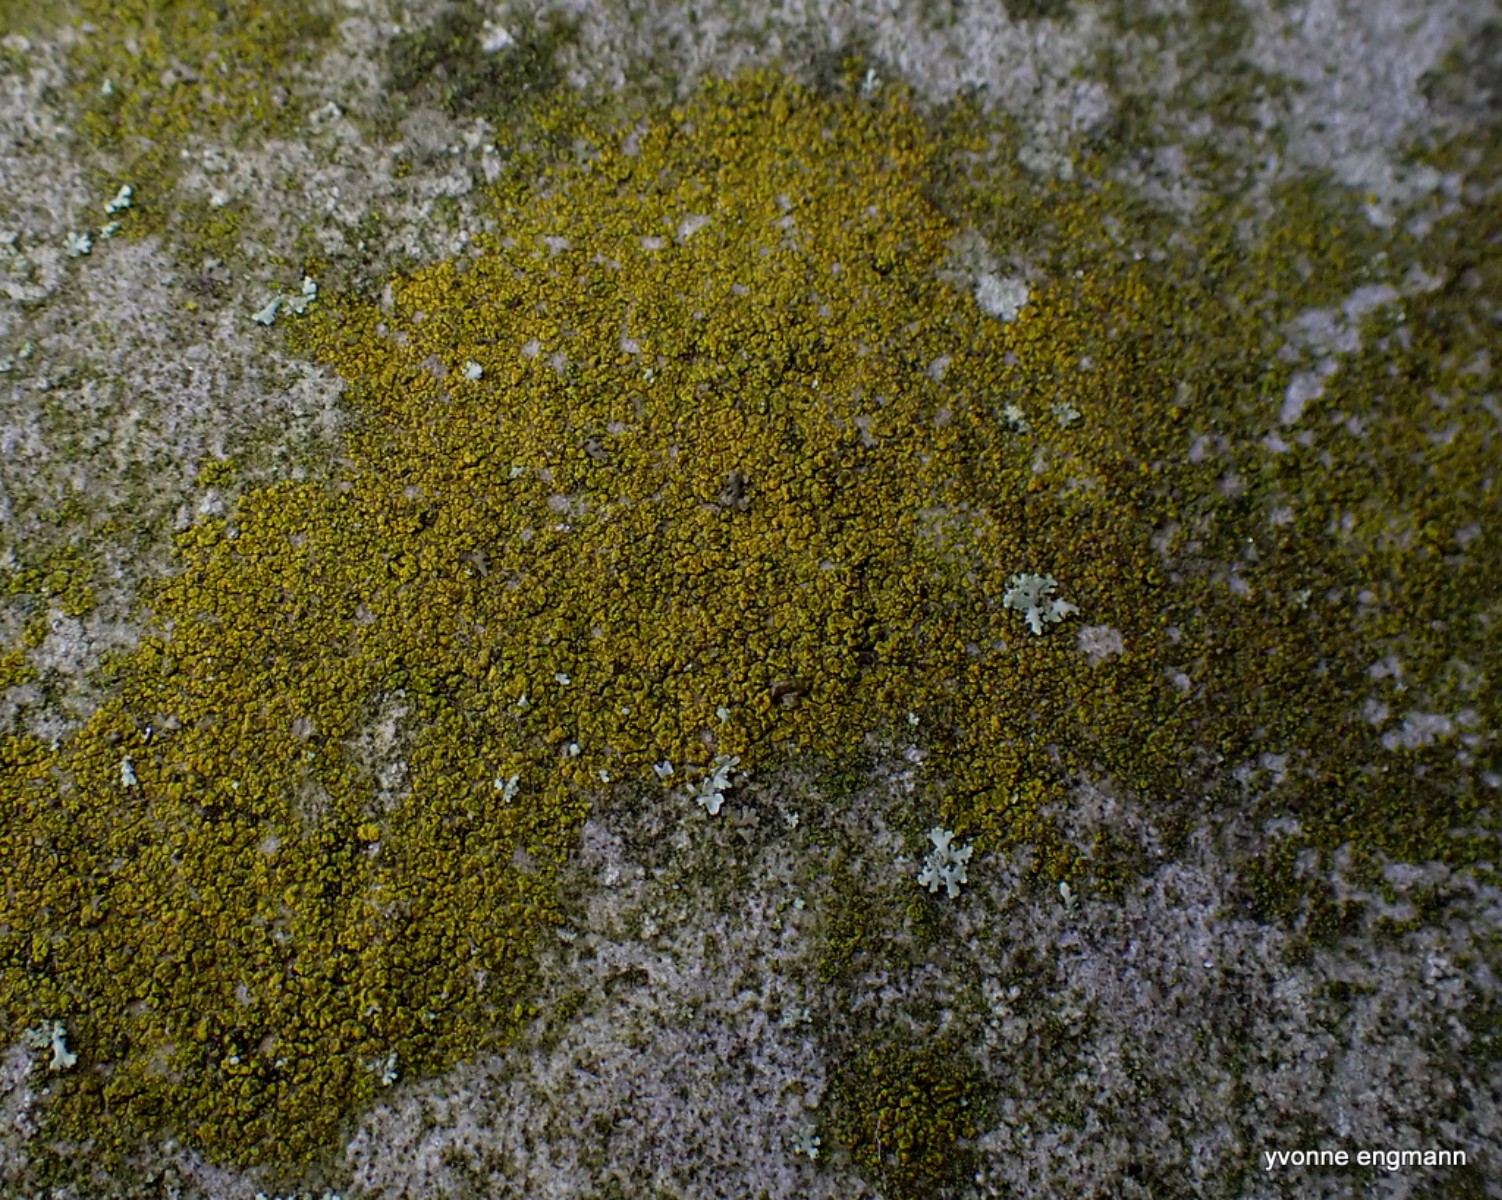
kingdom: Fungi
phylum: Ascomycota
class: Candelariomycetes
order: Candelariales
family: Candelariaceae
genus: Candelariella
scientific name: Candelariella vitellina
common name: almindelig æggeblommelav
